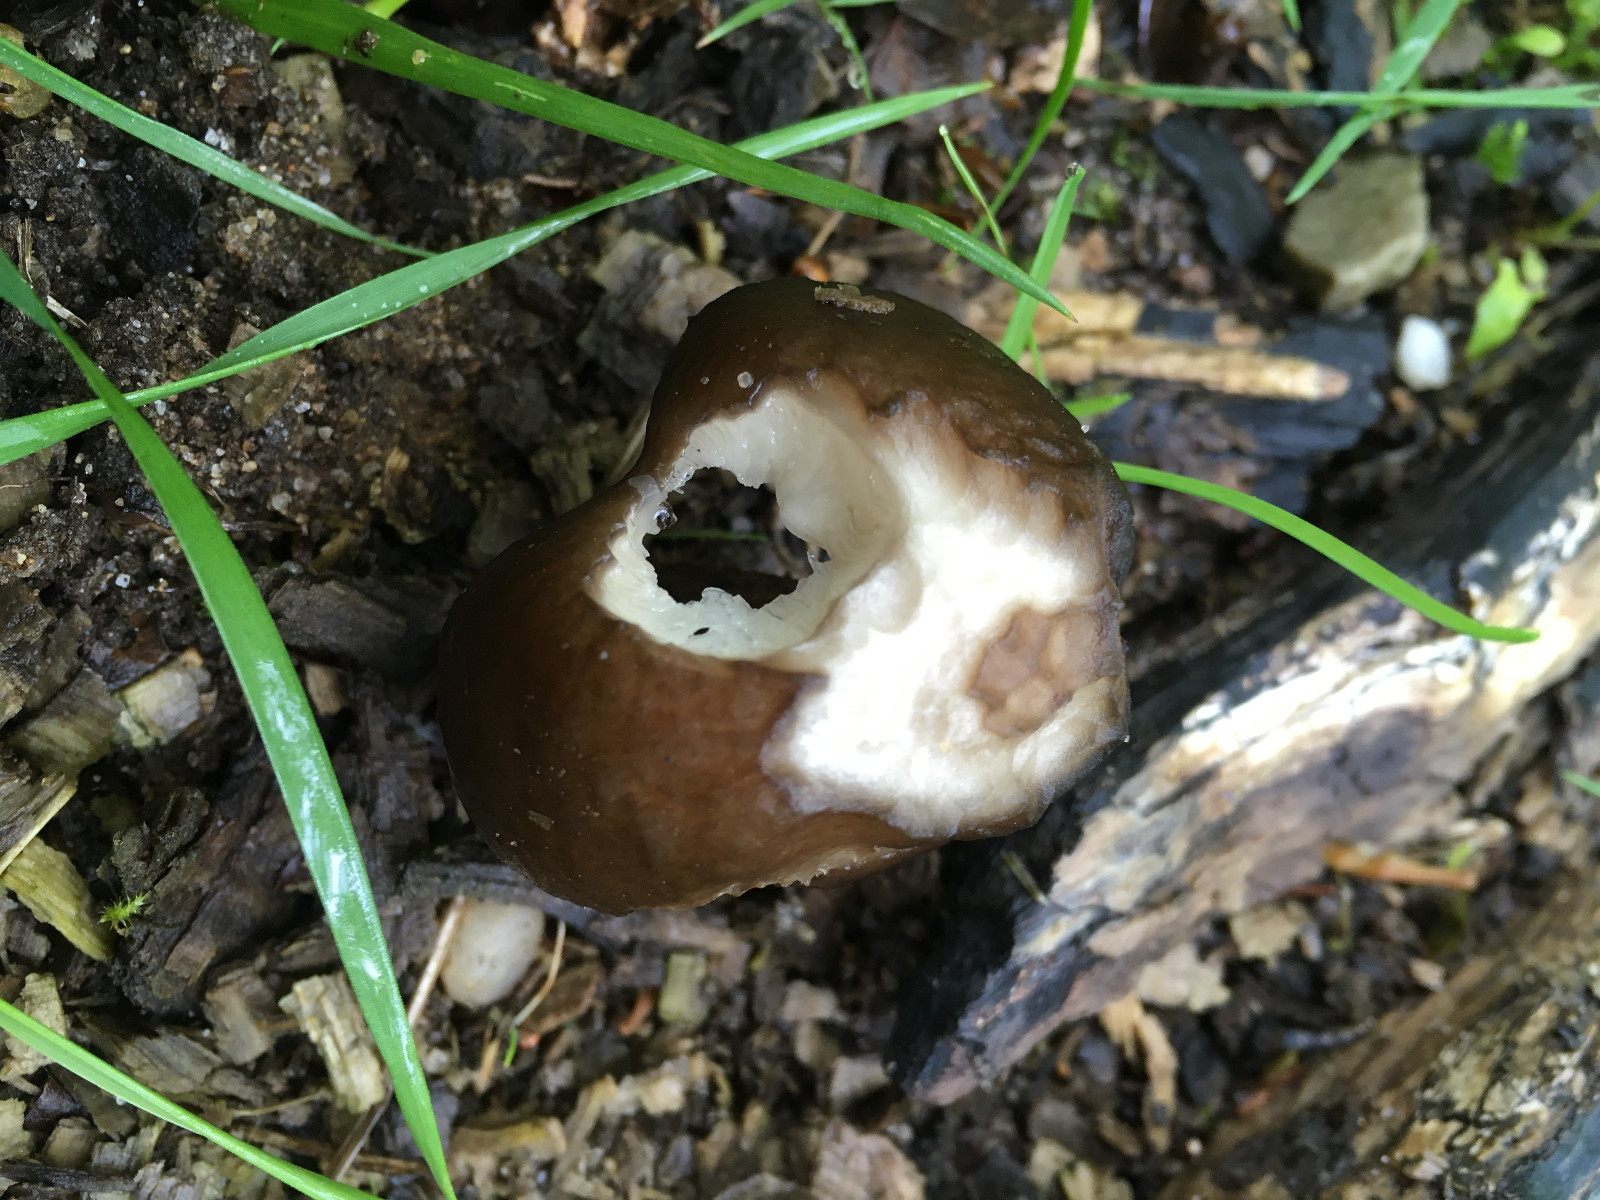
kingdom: Fungi
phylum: Basidiomycota
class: Agaricomycetes
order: Agaricales
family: Pluteaceae
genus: Pluteus
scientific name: Pluteus cervinus
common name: sodfarvet skærmhat
